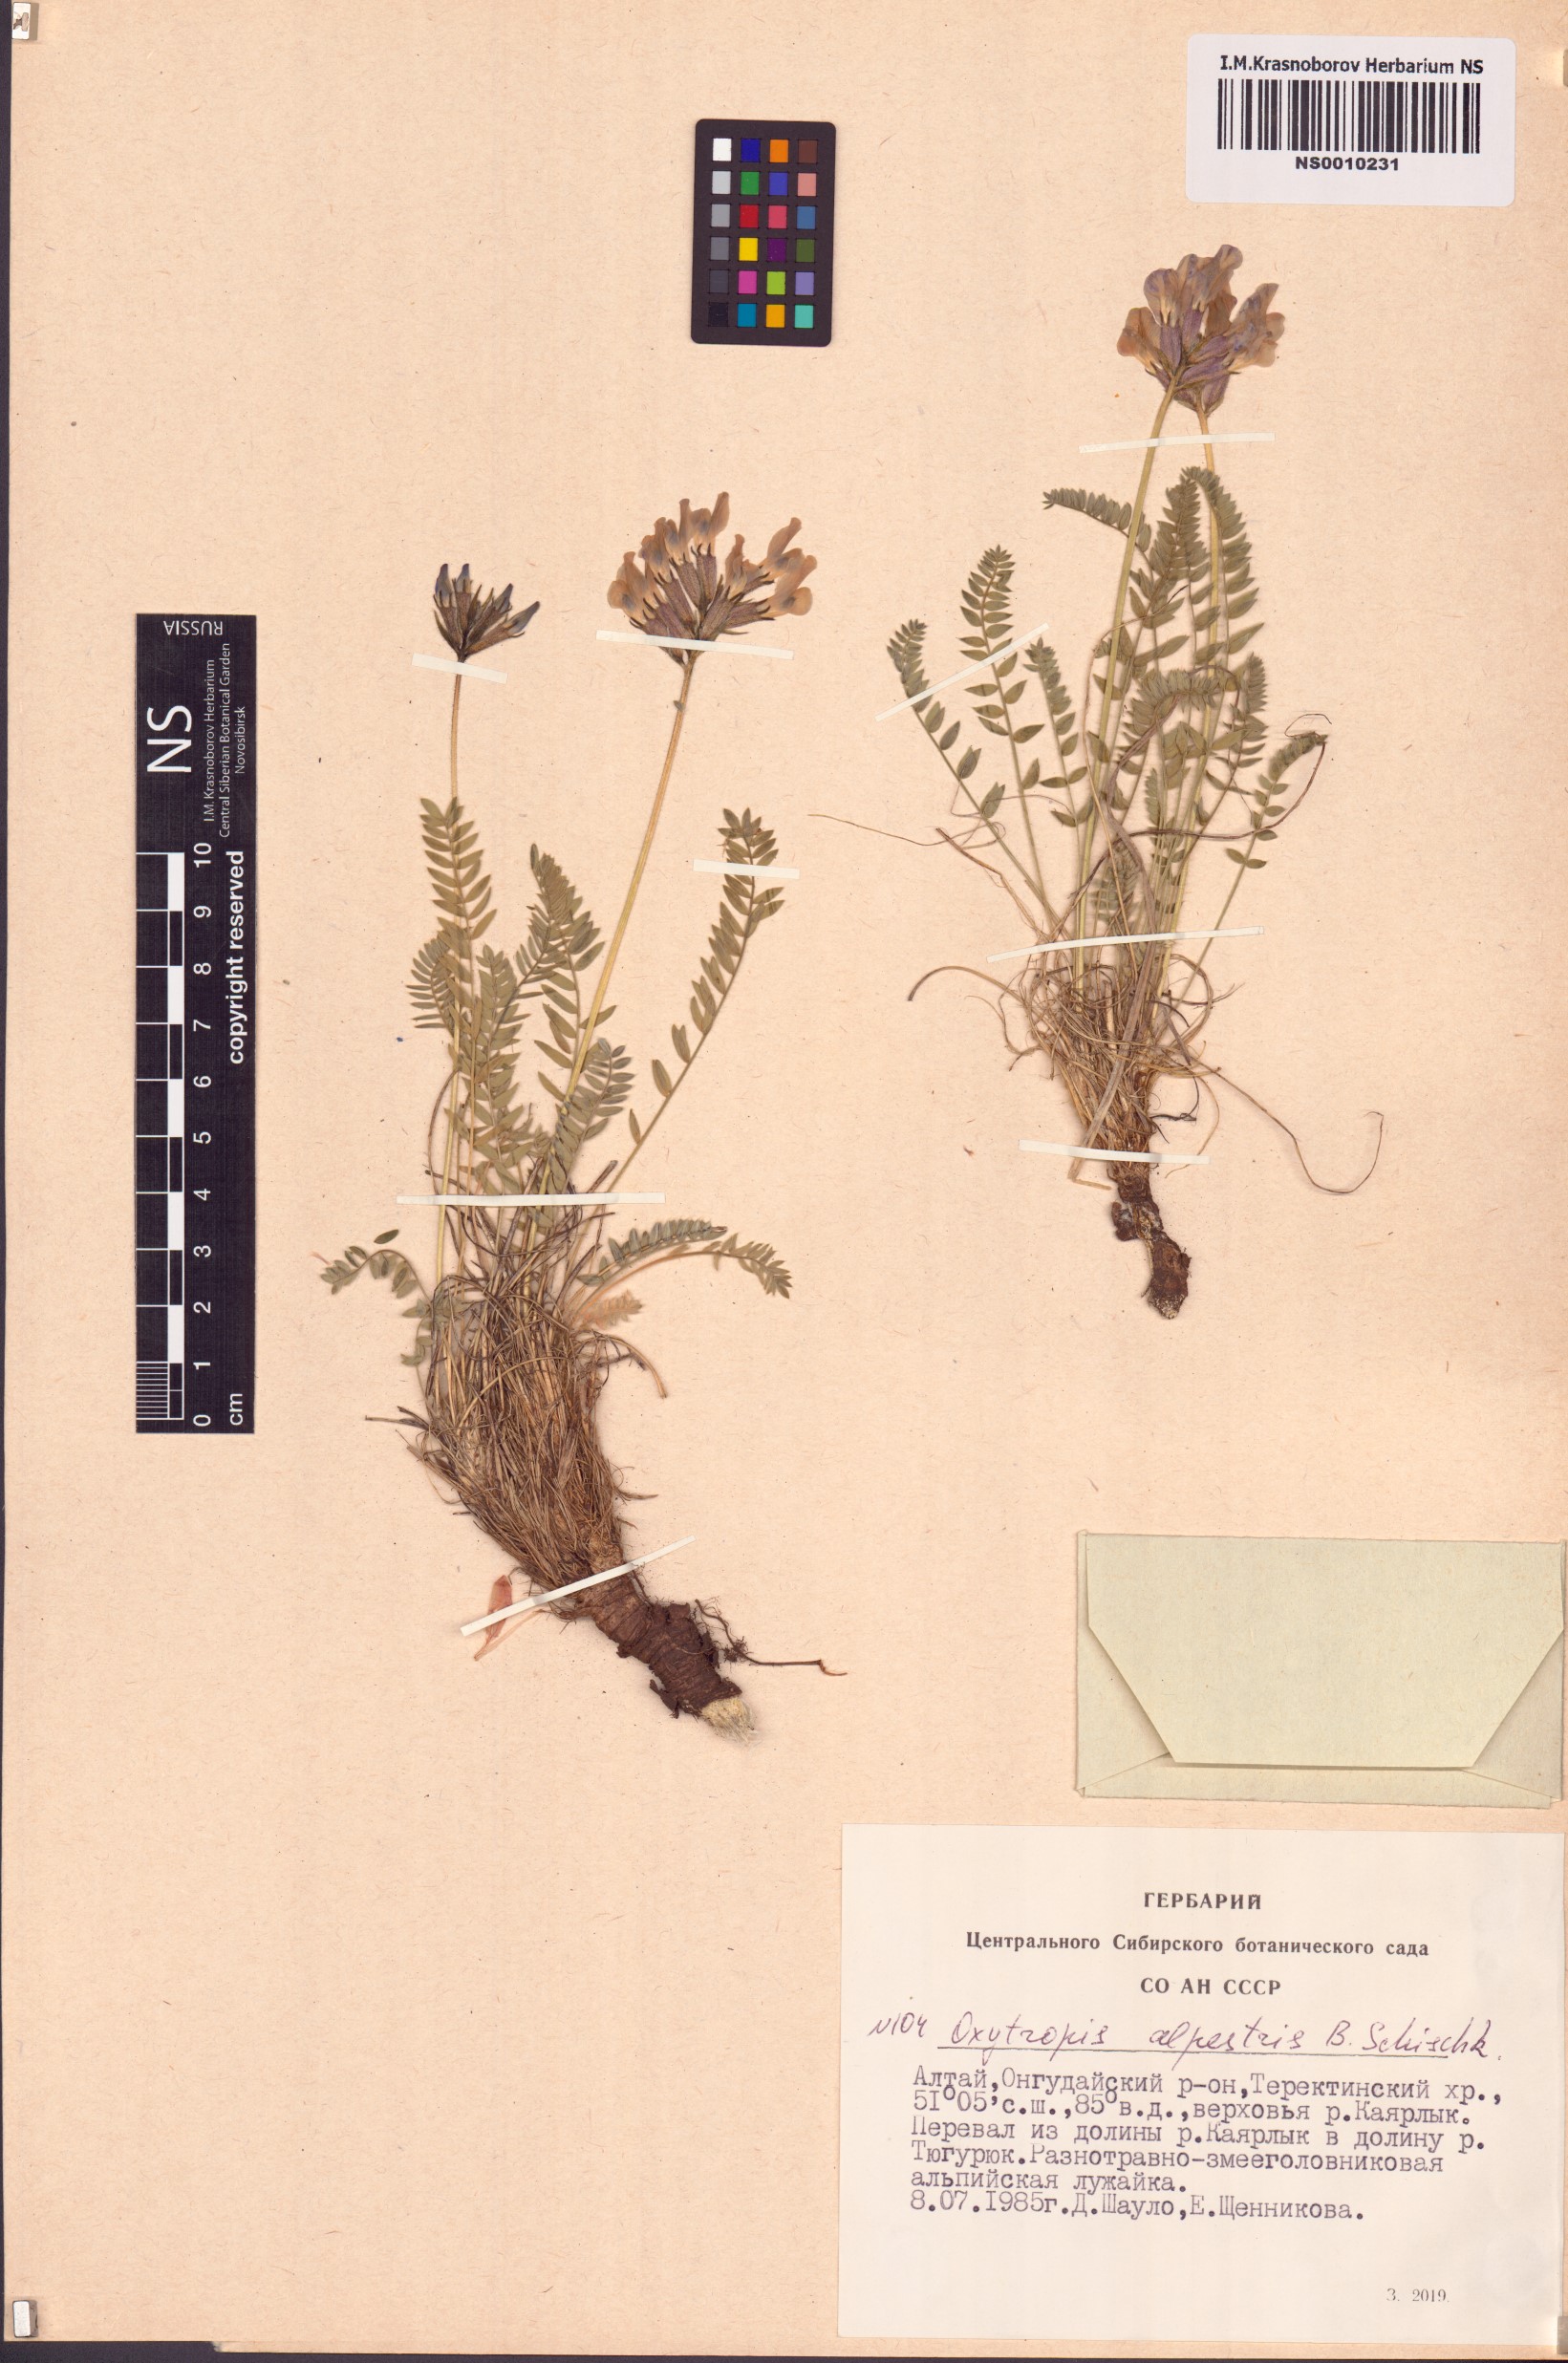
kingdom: Plantae
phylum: Tracheophyta
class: Magnoliopsida
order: Fabales
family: Fabaceae
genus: Oxytropis
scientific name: Oxytropis alpestris
